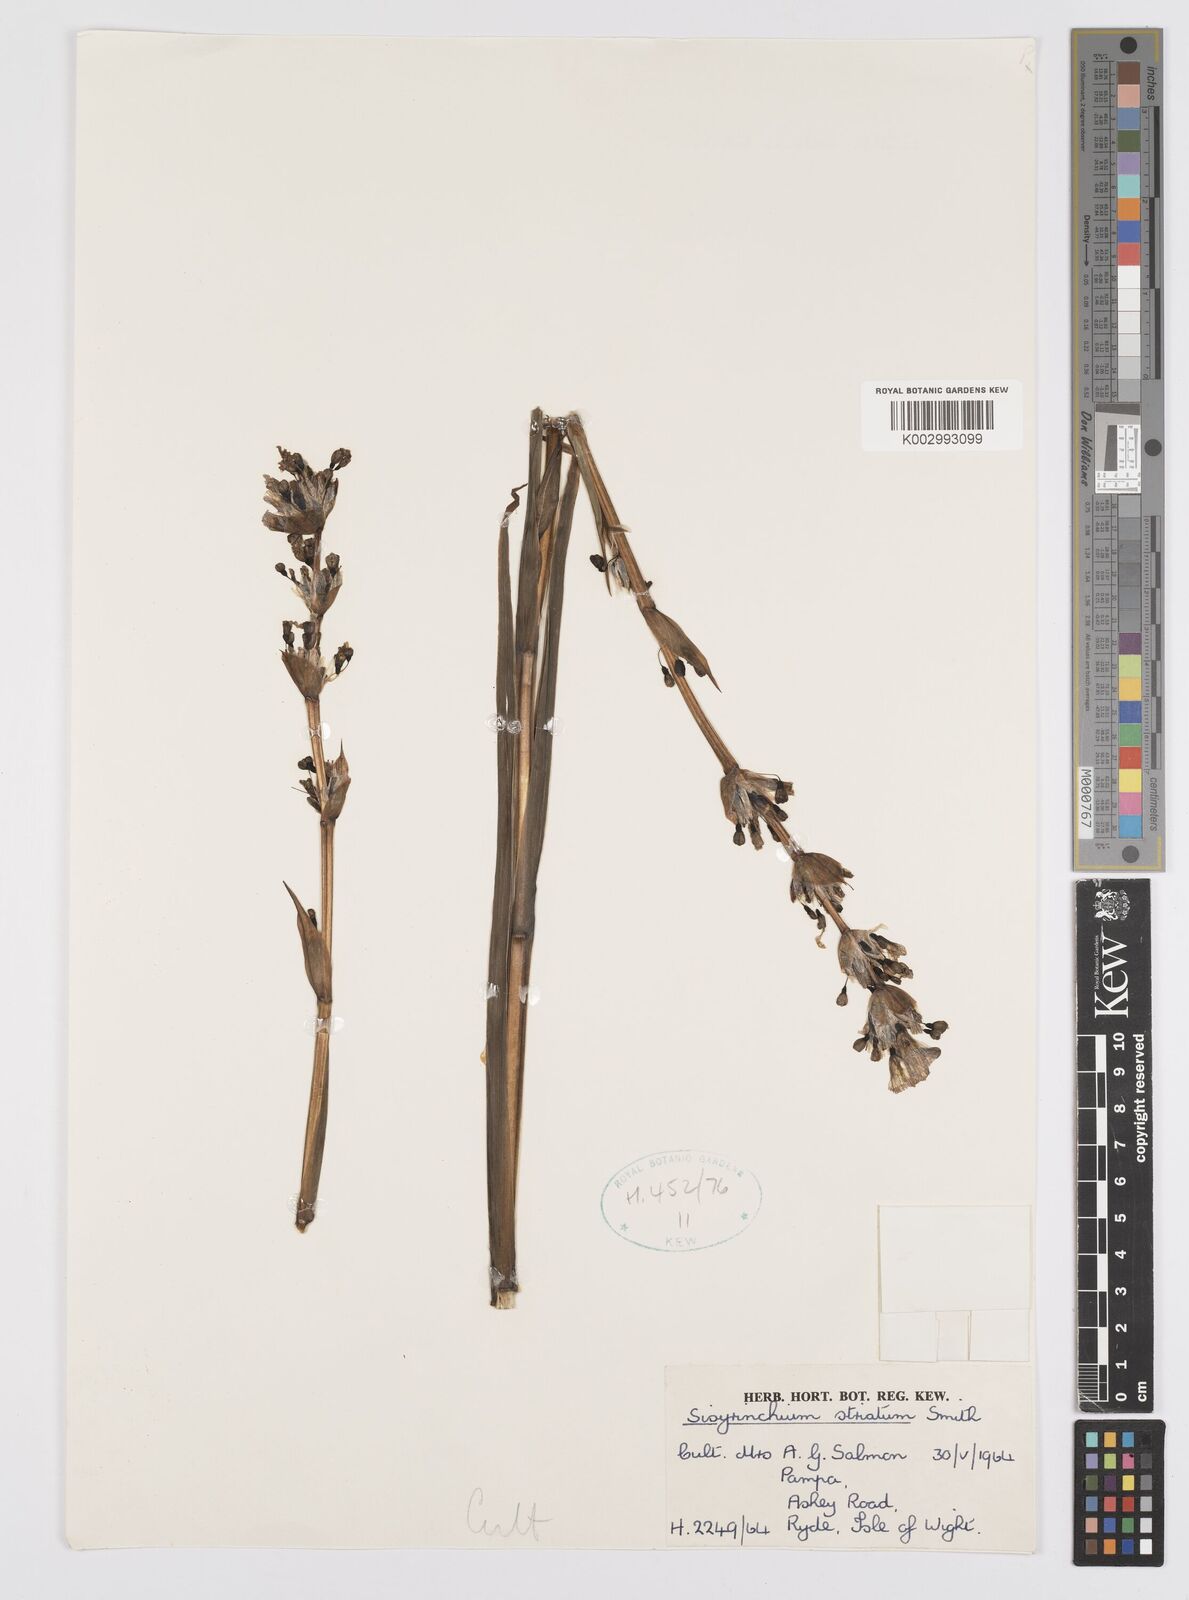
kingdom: Plantae
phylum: Tracheophyta
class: Liliopsida
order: Asparagales
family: Iridaceae
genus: Sisyrinchium
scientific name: Sisyrinchium striatum
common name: Pale yellow-eyed-grass
